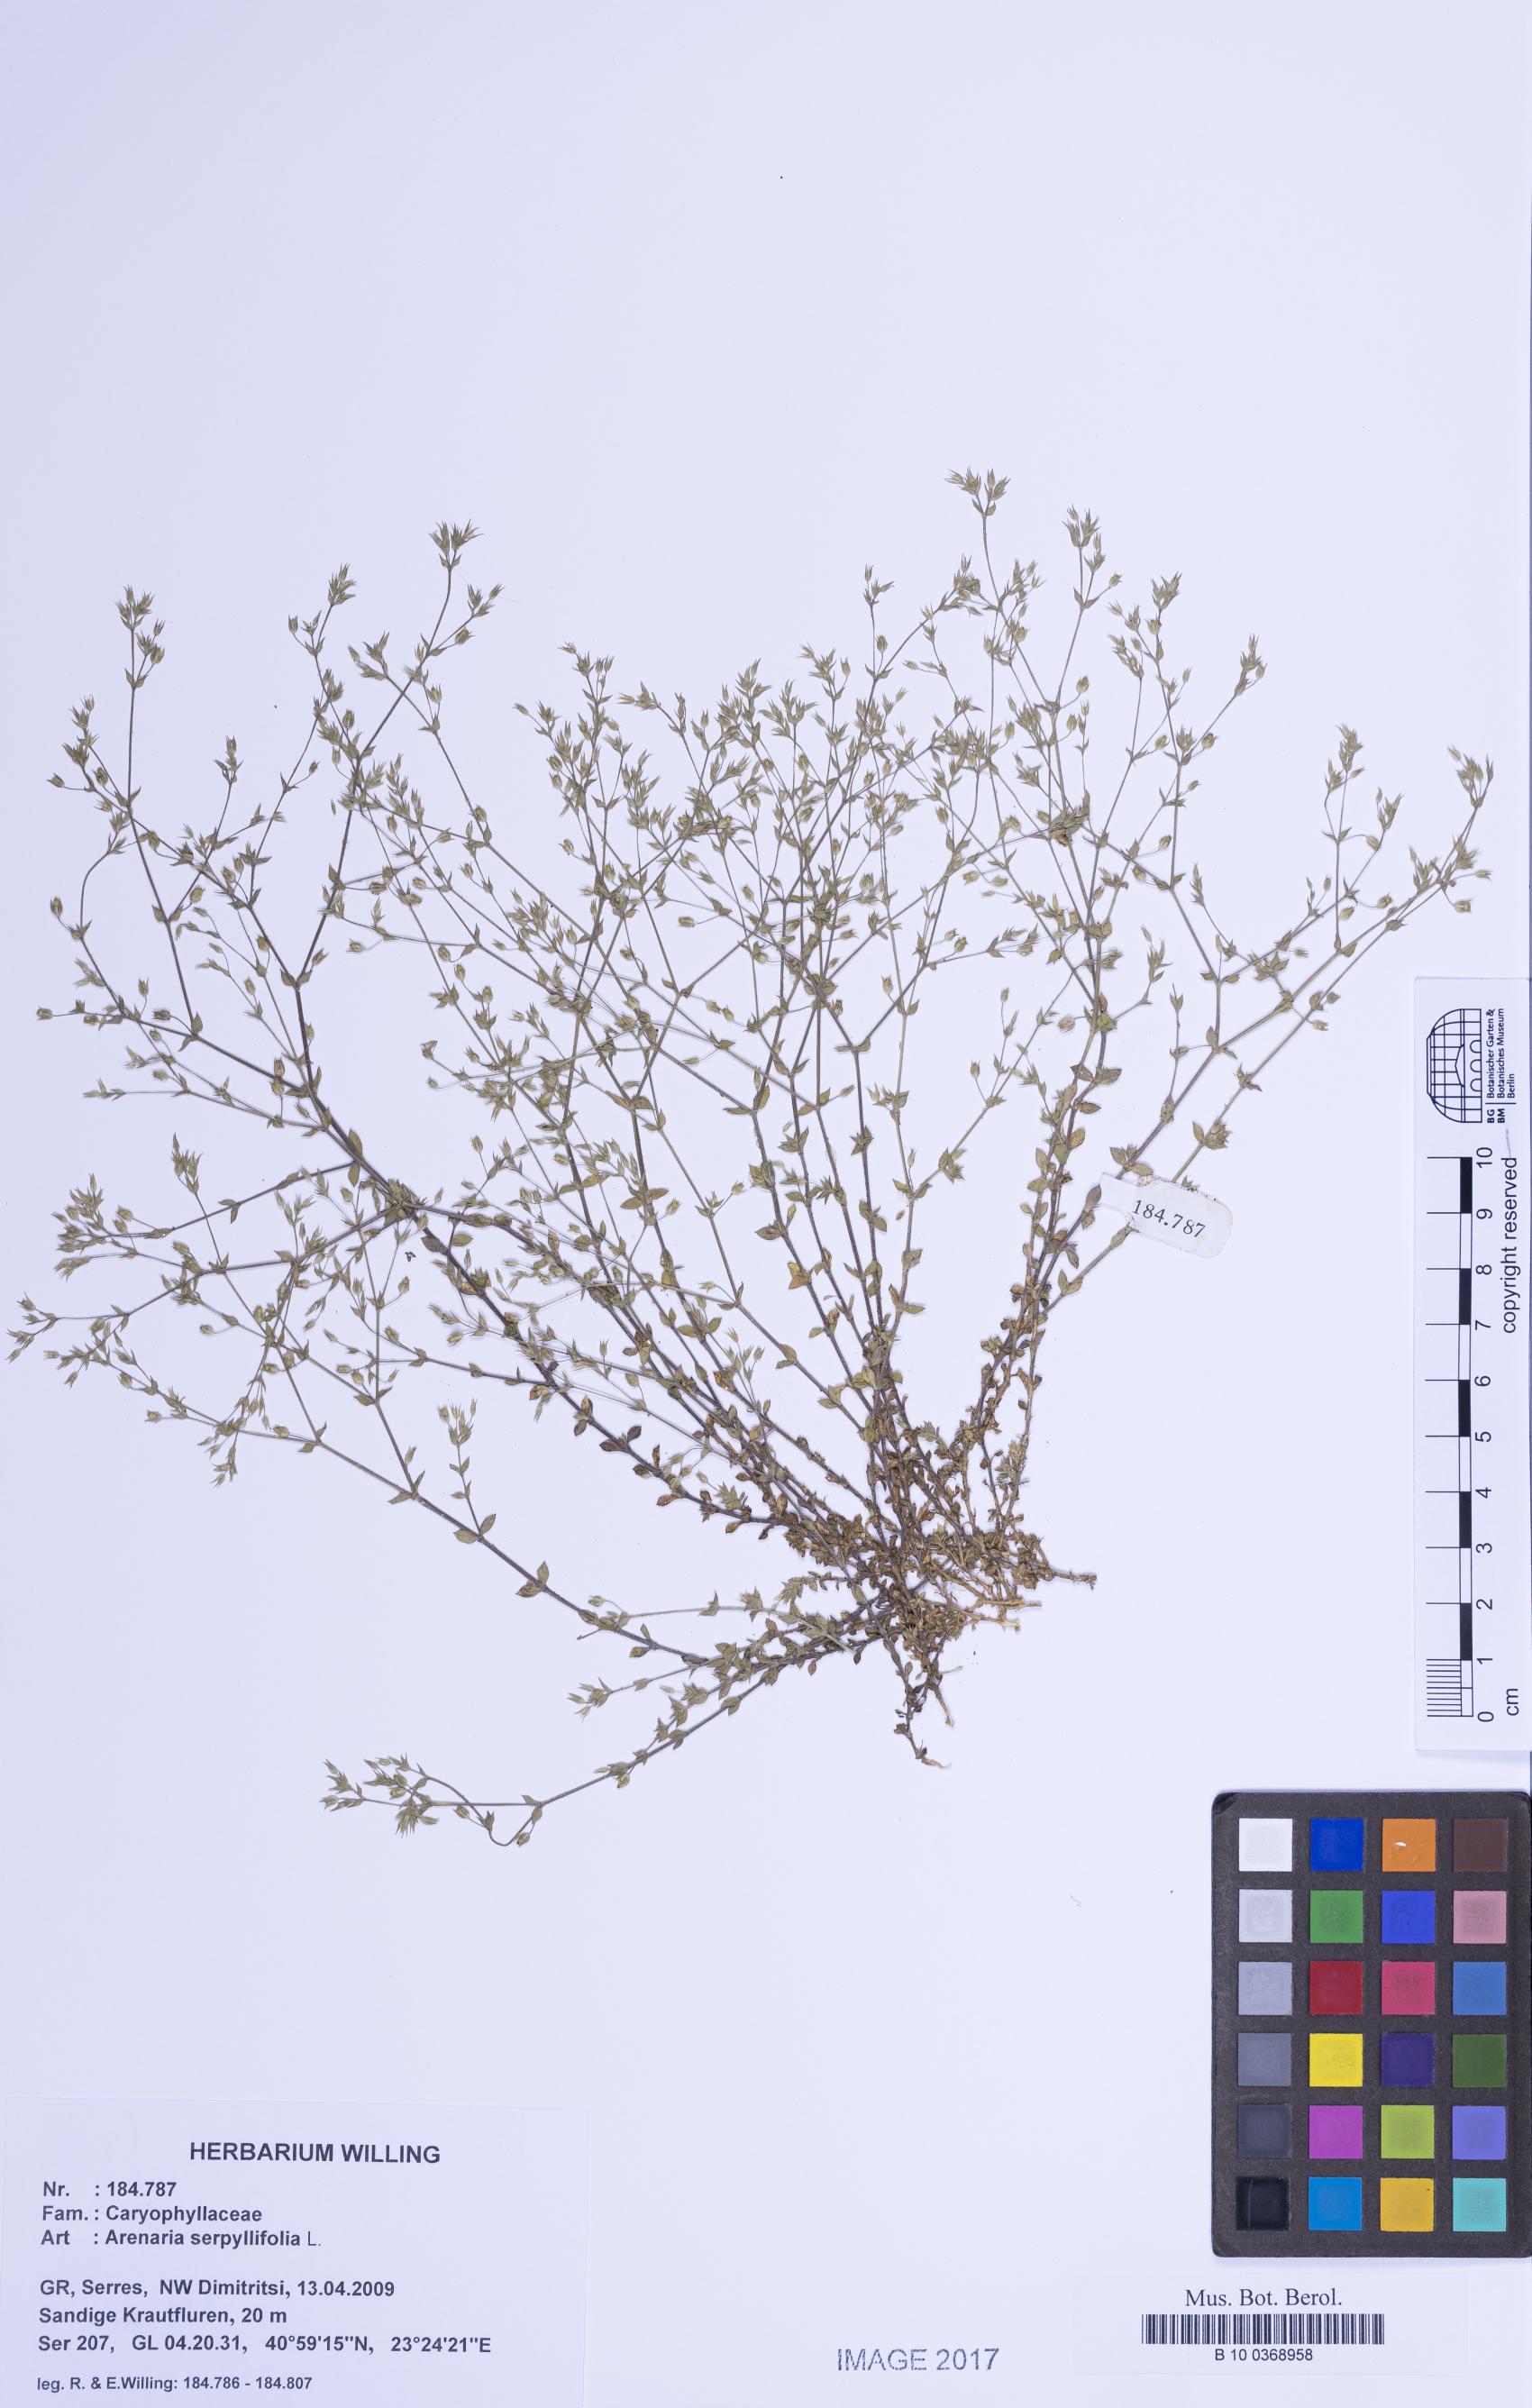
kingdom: Plantae
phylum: Tracheophyta
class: Magnoliopsida
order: Caryophyllales
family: Caryophyllaceae
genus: Arenaria
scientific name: Arenaria serpyllifolia
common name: Thyme-leaved sandwort
